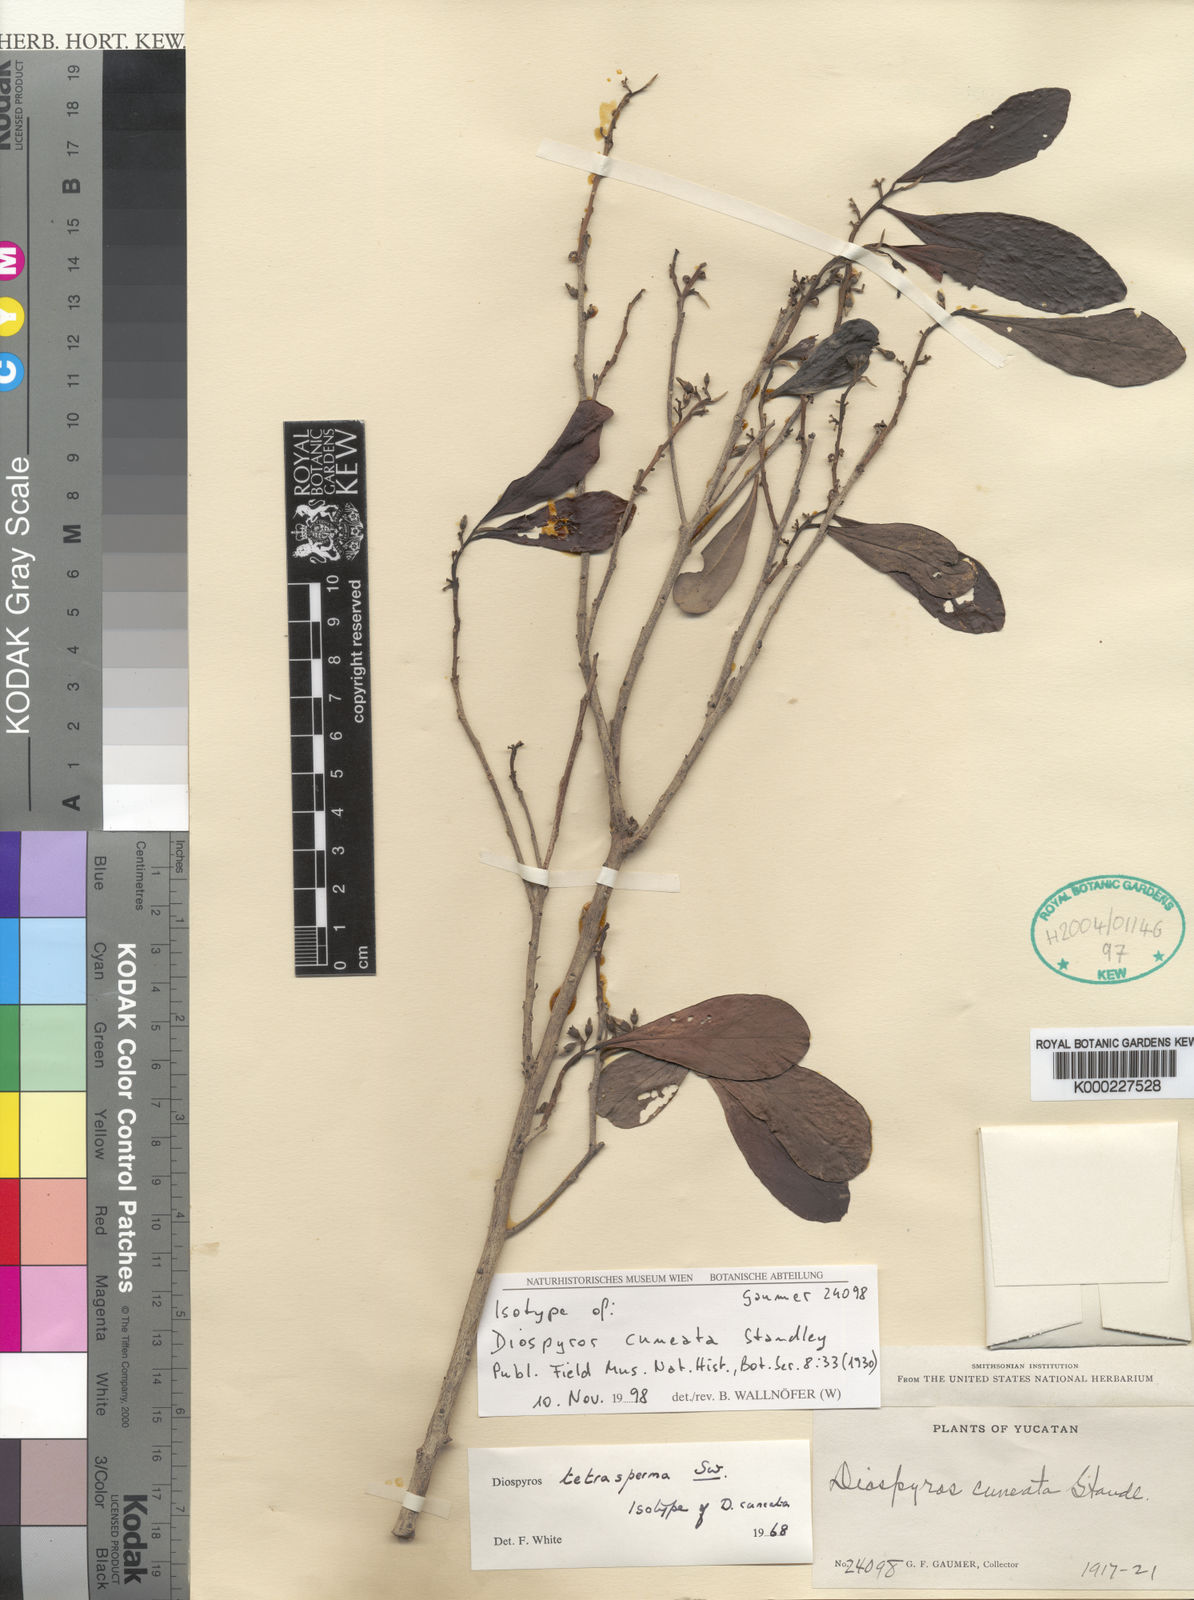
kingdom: Plantae
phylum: Tracheophyta
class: Magnoliopsida
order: Ericales
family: Ebenaceae
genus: Diospyros
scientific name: Diospyros tetrasperma
